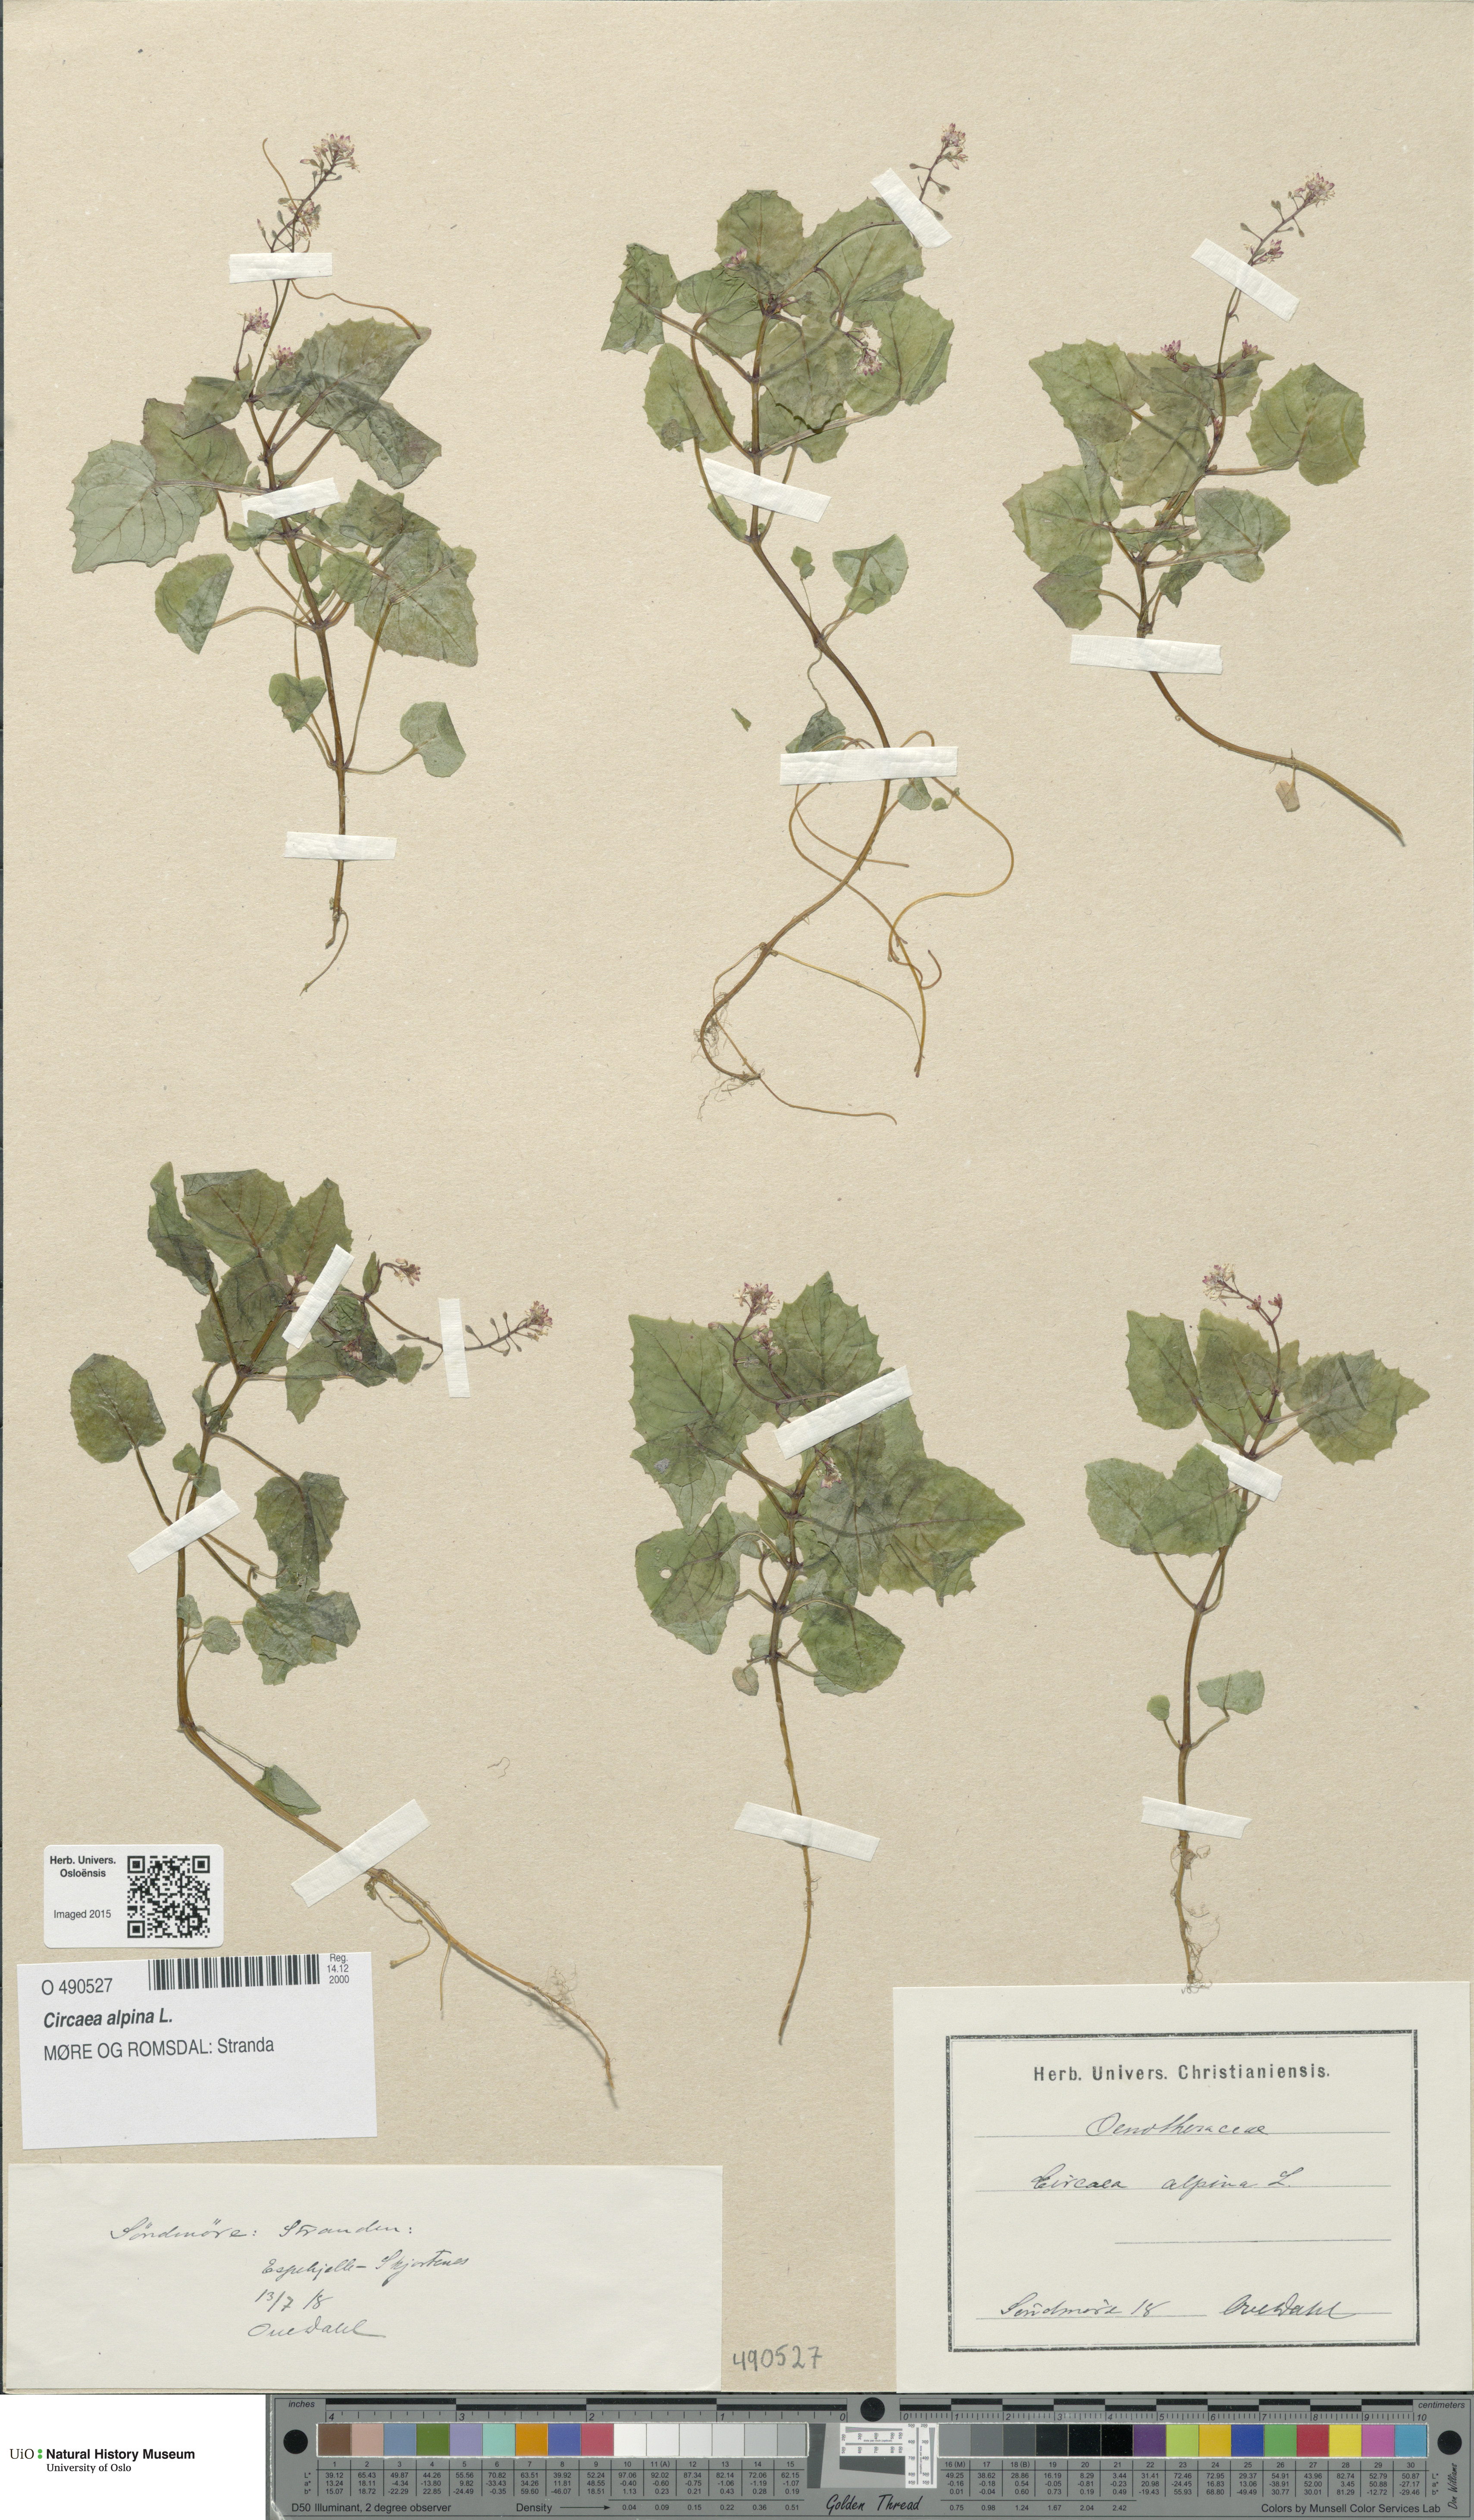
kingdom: Plantae
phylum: Tracheophyta
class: Magnoliopsida
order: Myrtales
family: Onagraceae
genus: Circaea
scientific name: Circaea alpina
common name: Alpine enchanter's-nightshade
